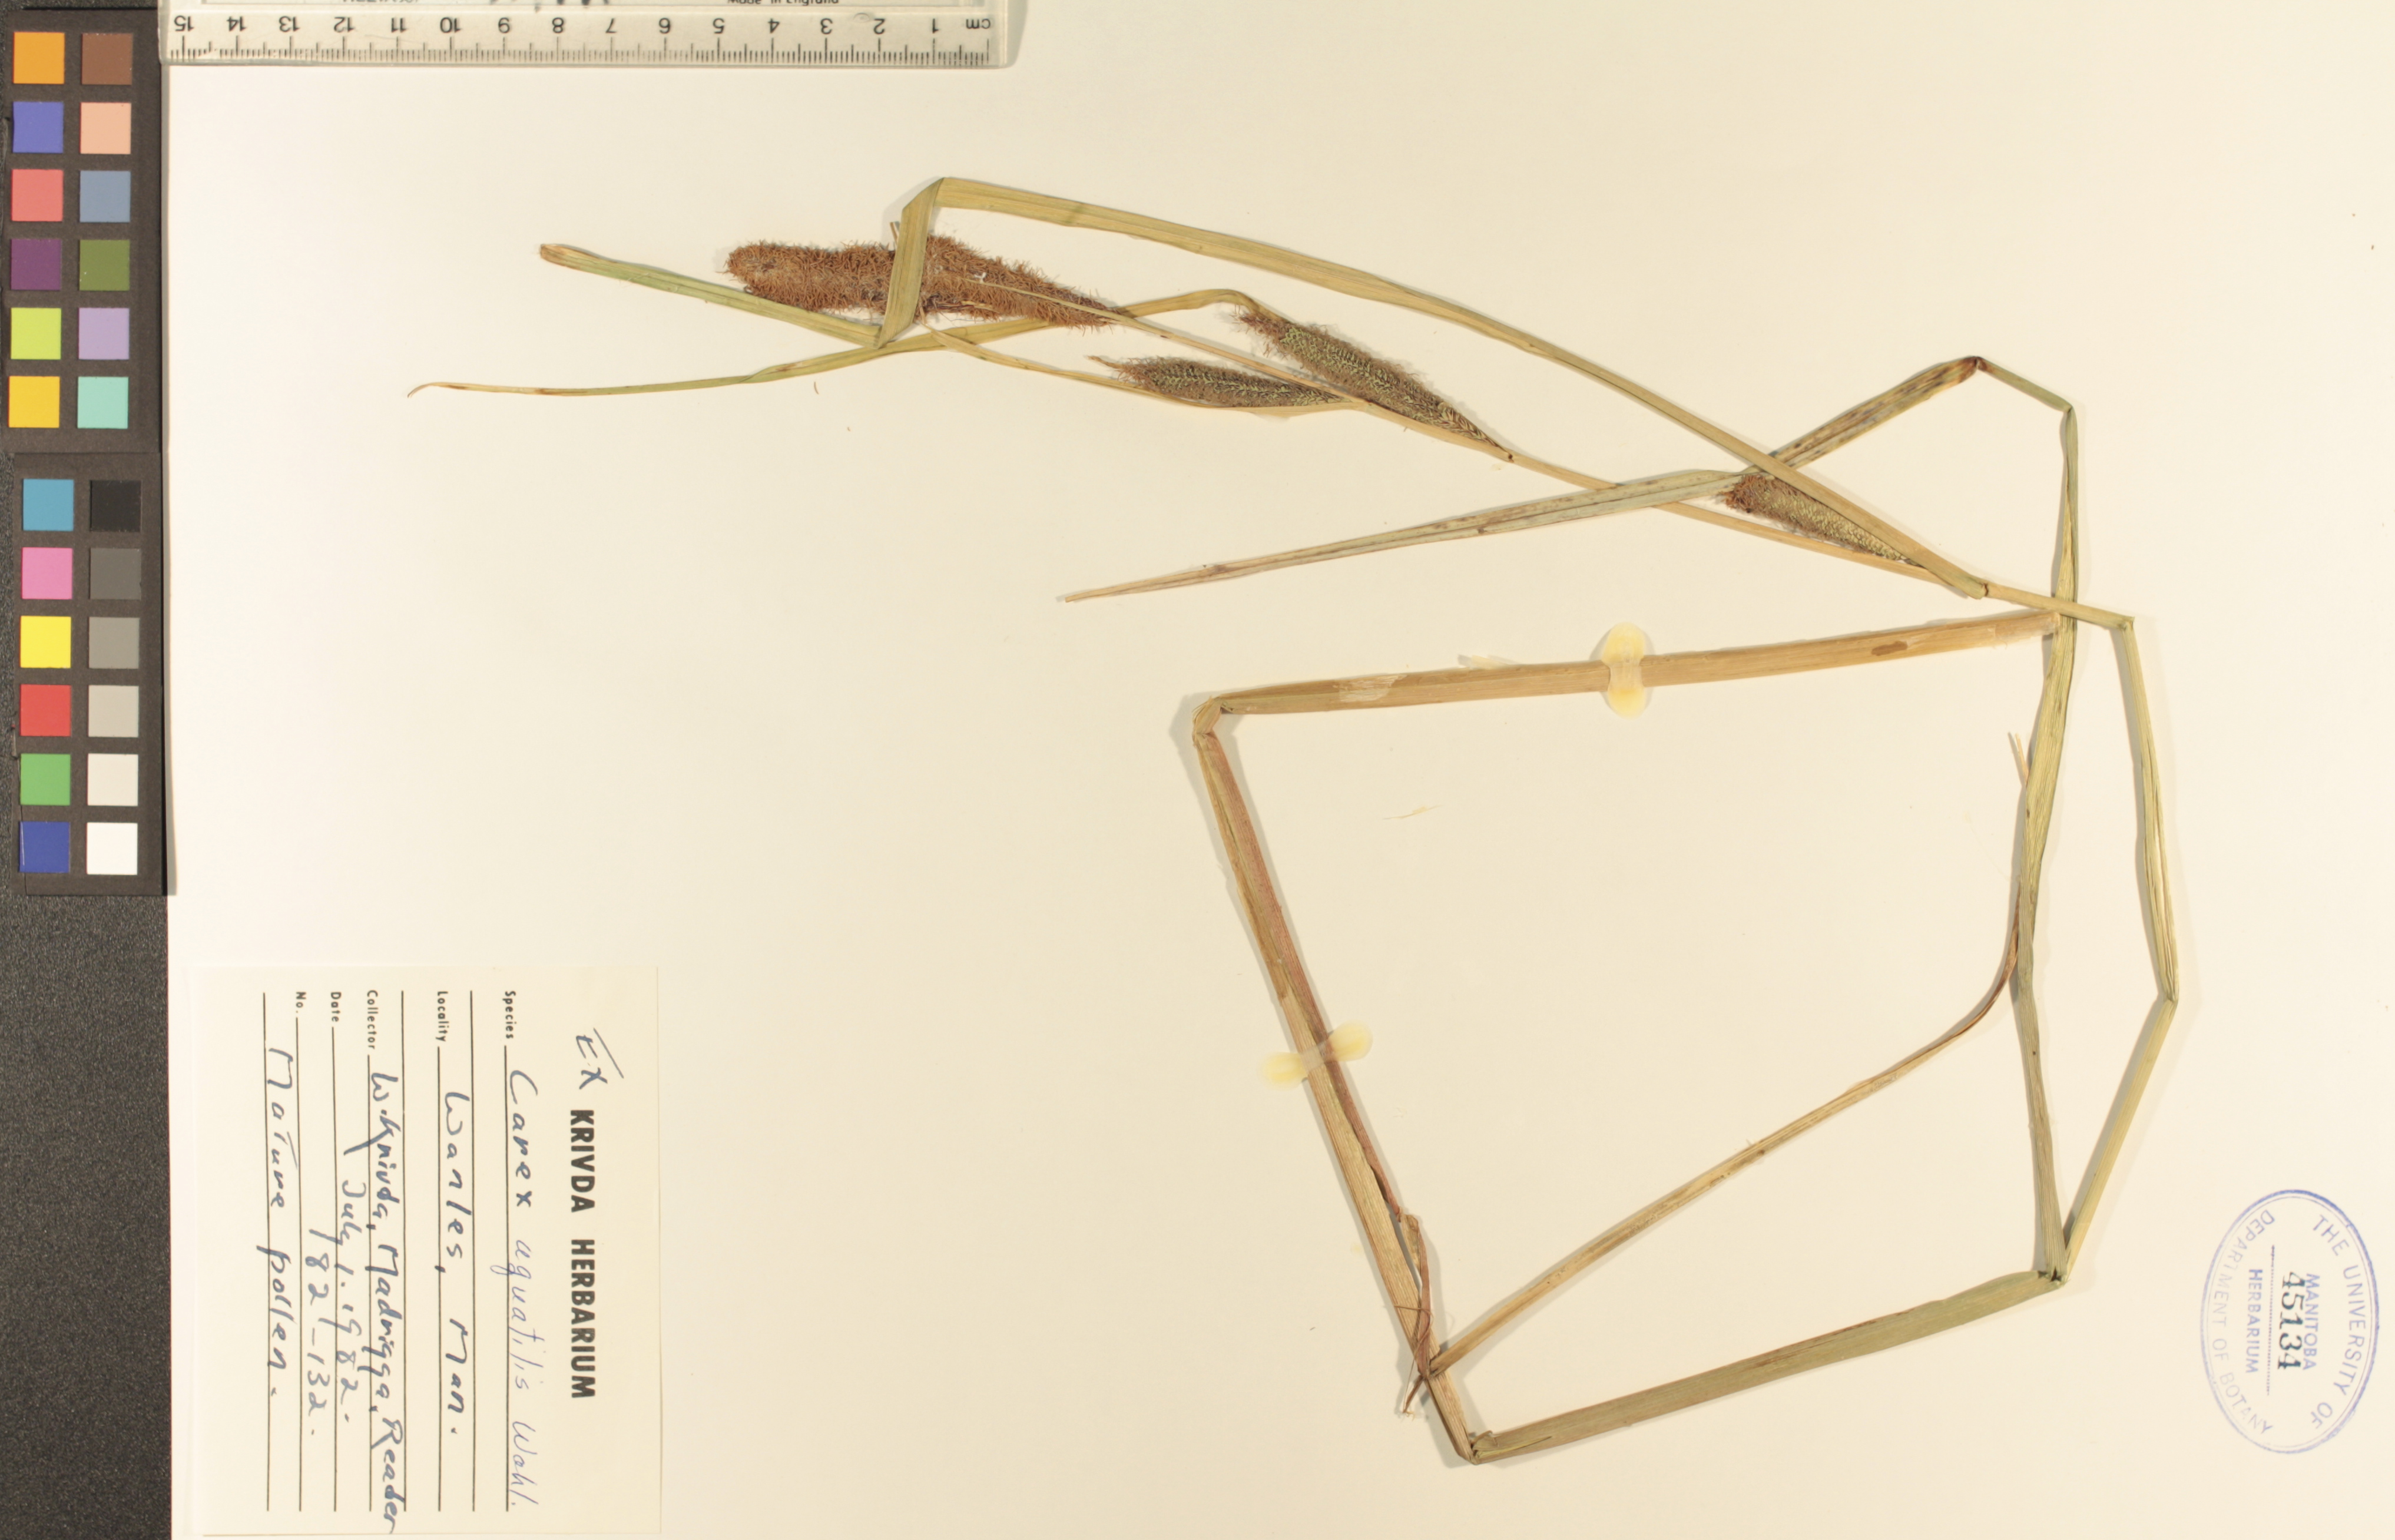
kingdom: Plantae
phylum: Tracheophyta
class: Liliopsida
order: Poales
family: Cyperaceae
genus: Carex
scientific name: Carex aquatilis
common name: Water sedge
